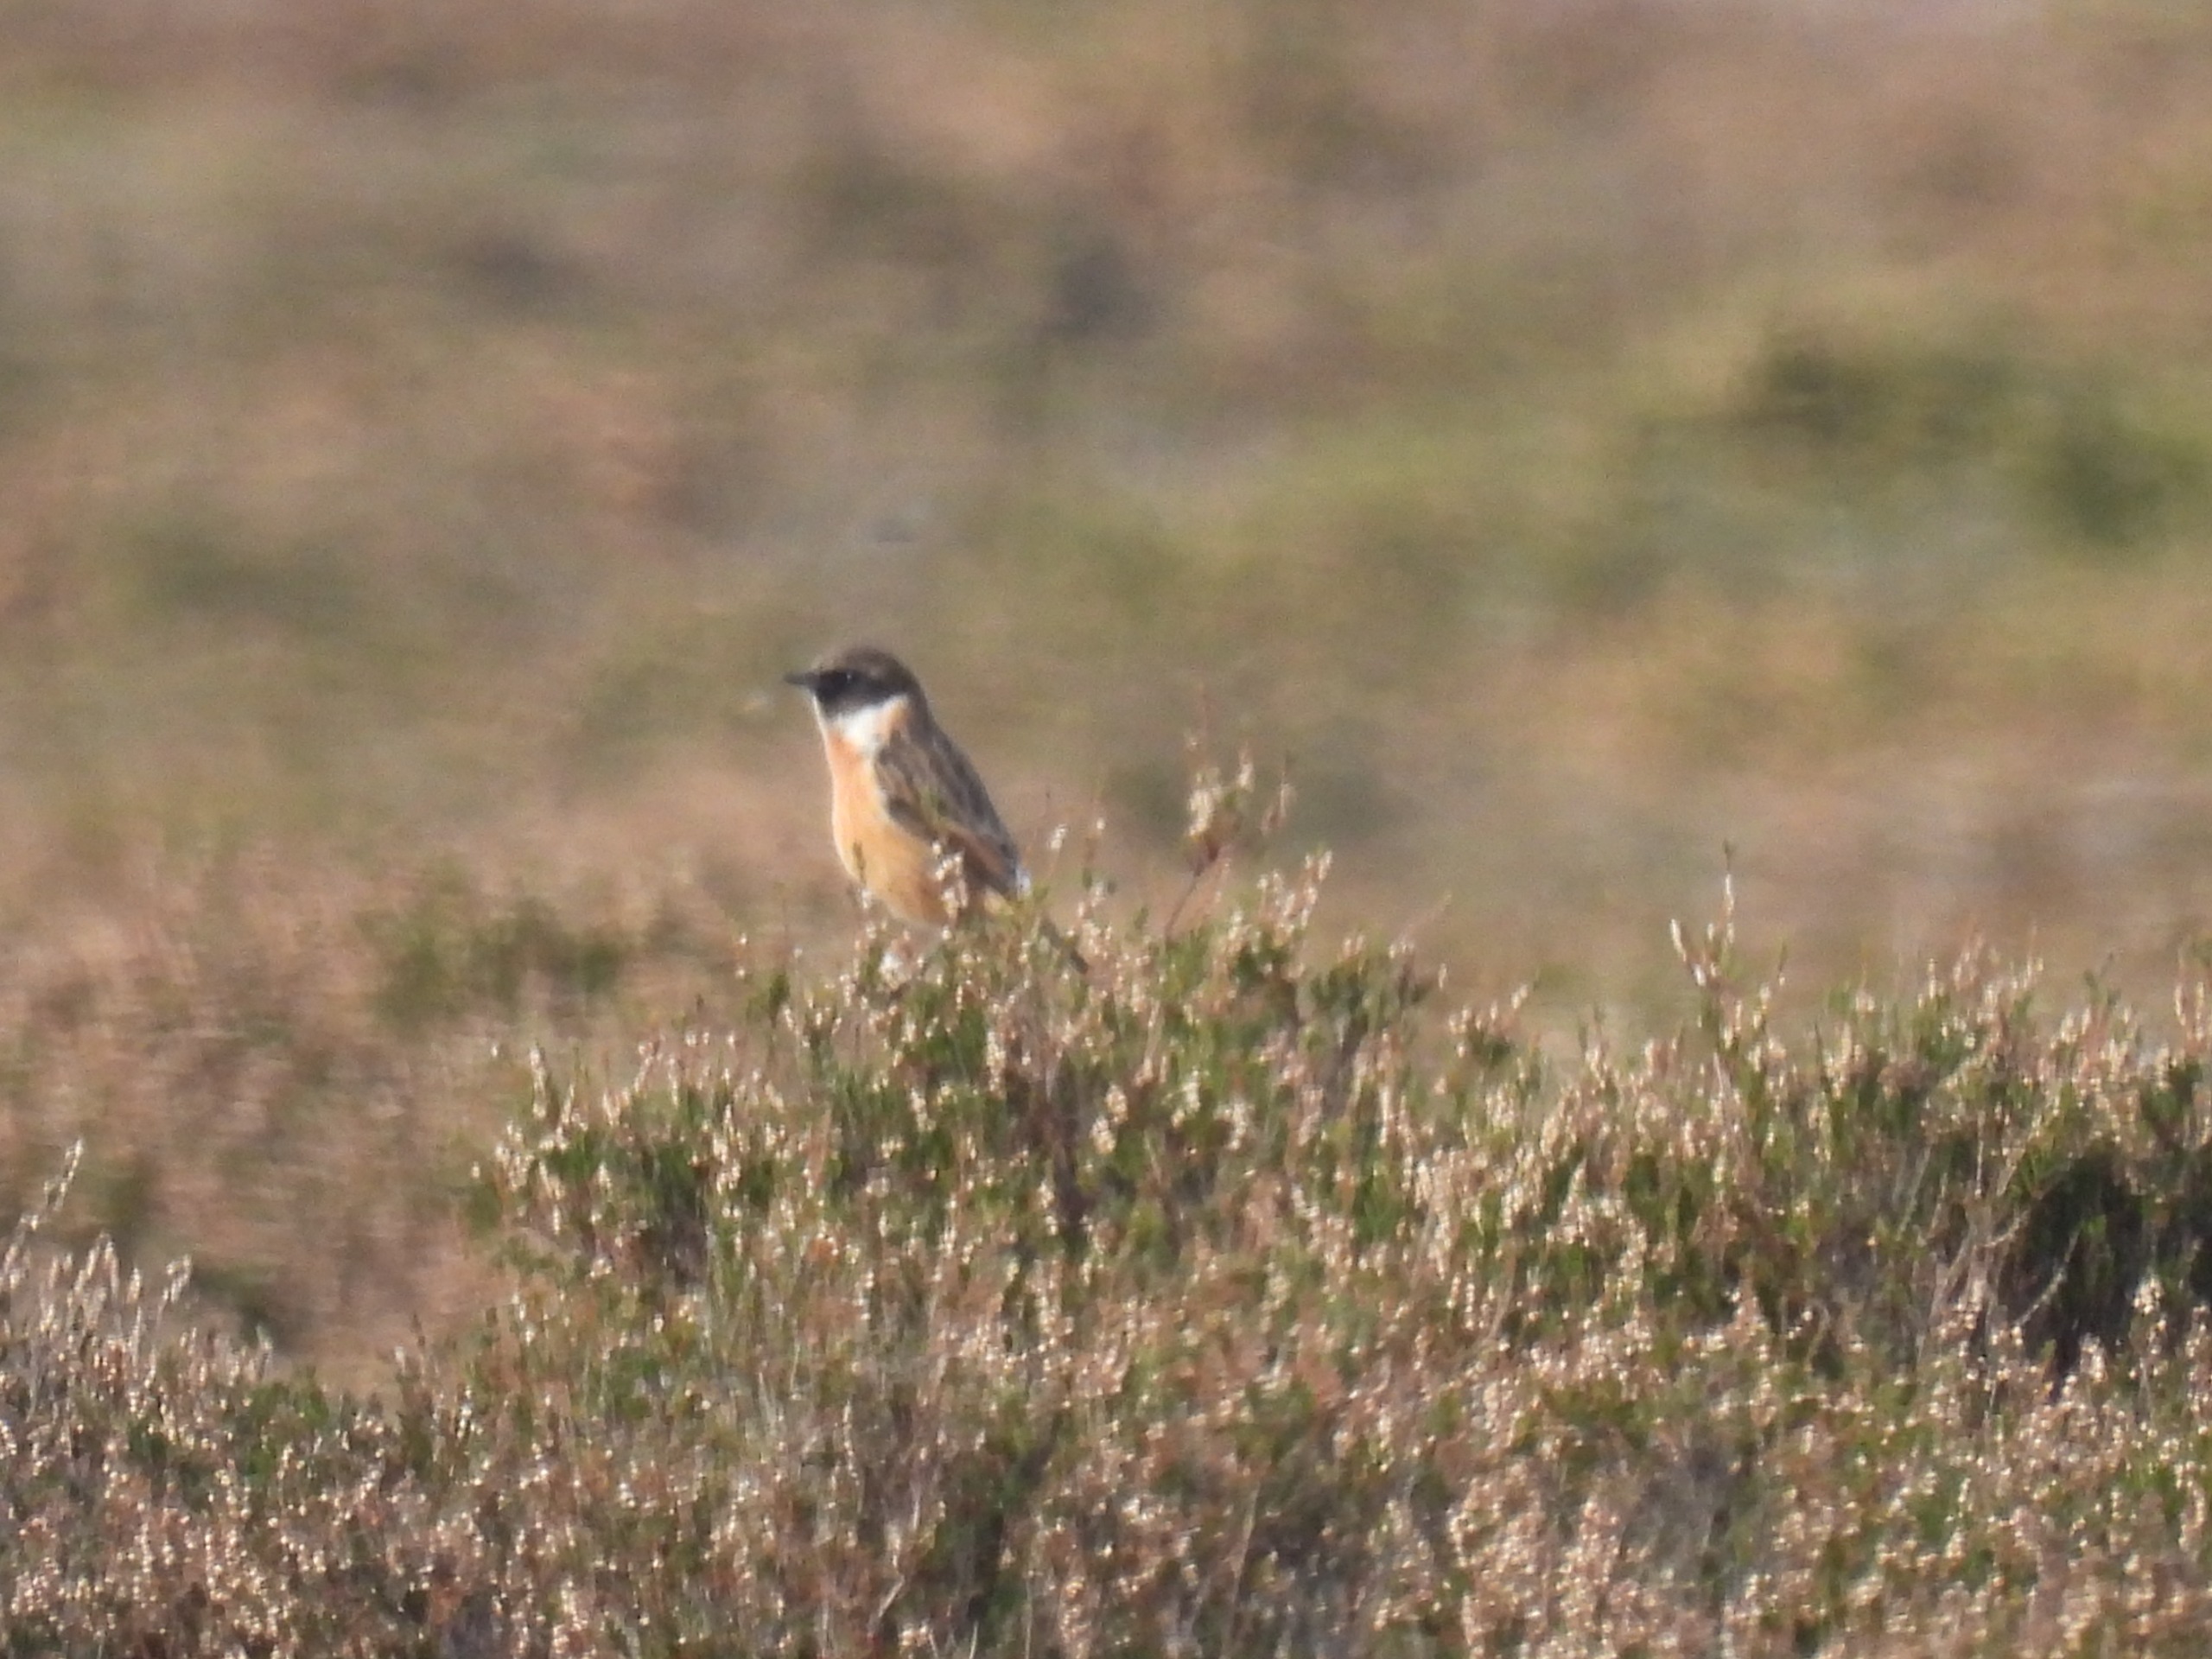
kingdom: Animalia
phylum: Chordata
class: Aves
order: Passeriformes
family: Muscicapidae
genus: Saxicola
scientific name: Saxicola rubicola
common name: Sortstrubet bynkefugl
